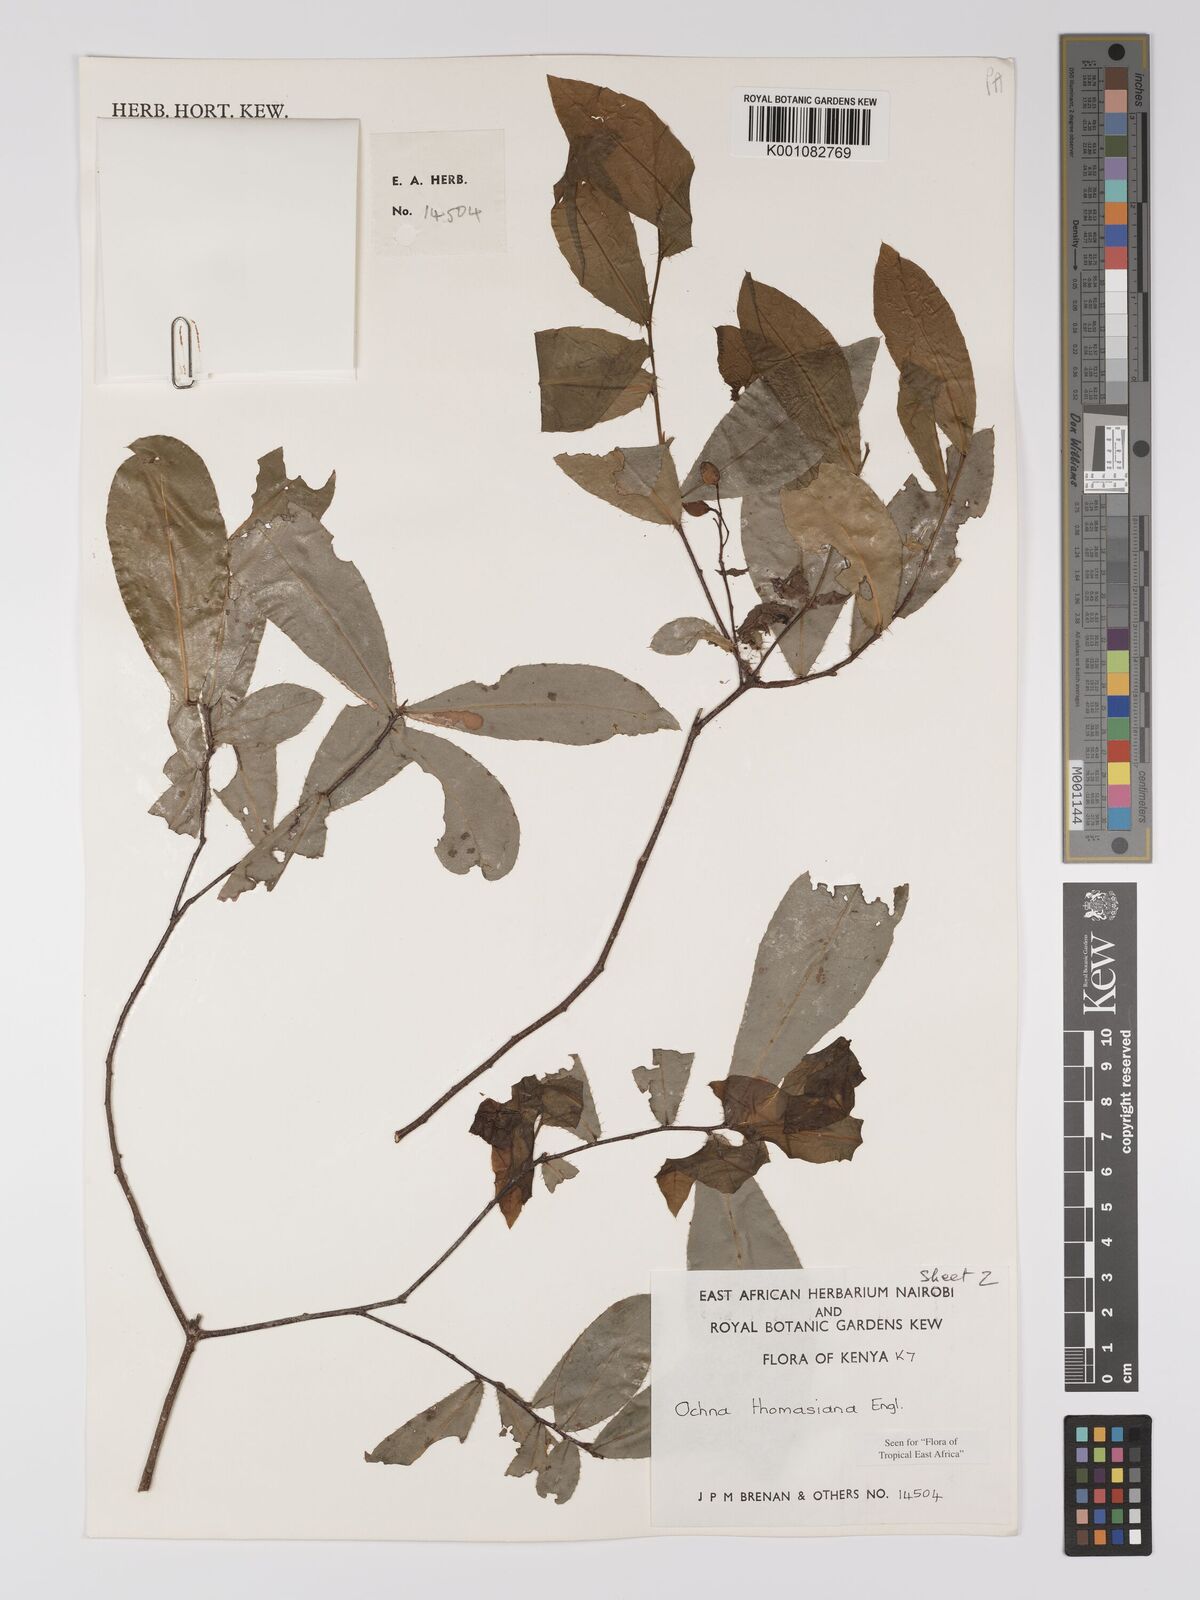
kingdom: Plantae
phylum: Tracheophyta
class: Magnoliopsida
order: Malpighiales
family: Ochnaceae
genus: Ochna
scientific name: Ochna thomasiana
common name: Thomas' bird's-eye bush
